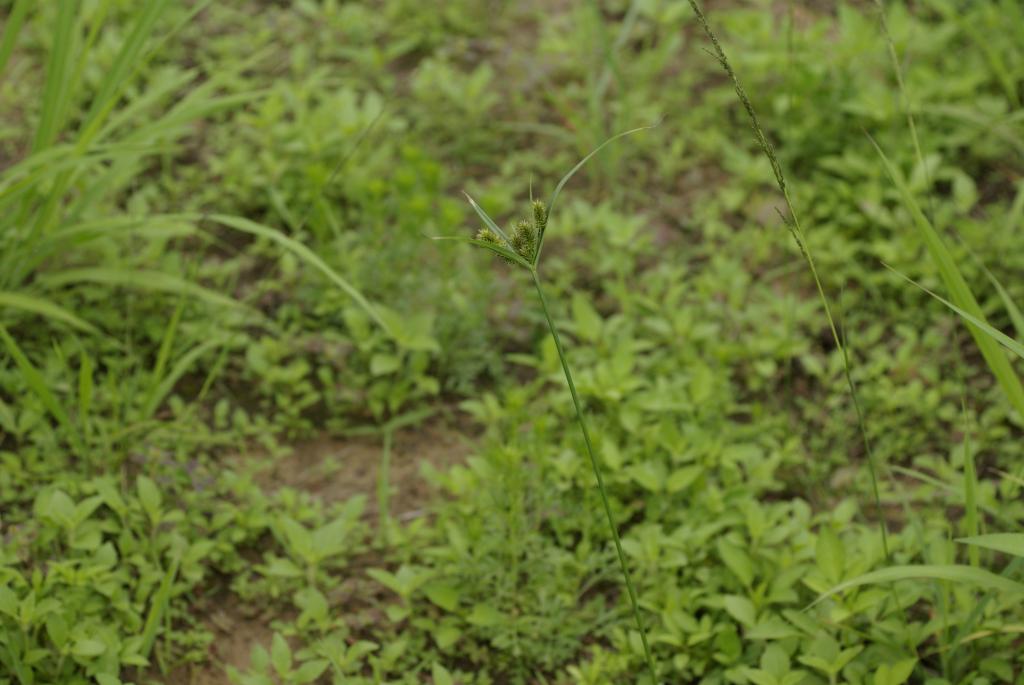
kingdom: Plantae
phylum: Tracheophyta
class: Liliopsida
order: Poales
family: Cyperaceae
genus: Cyperus
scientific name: Cyperus cyperoides
